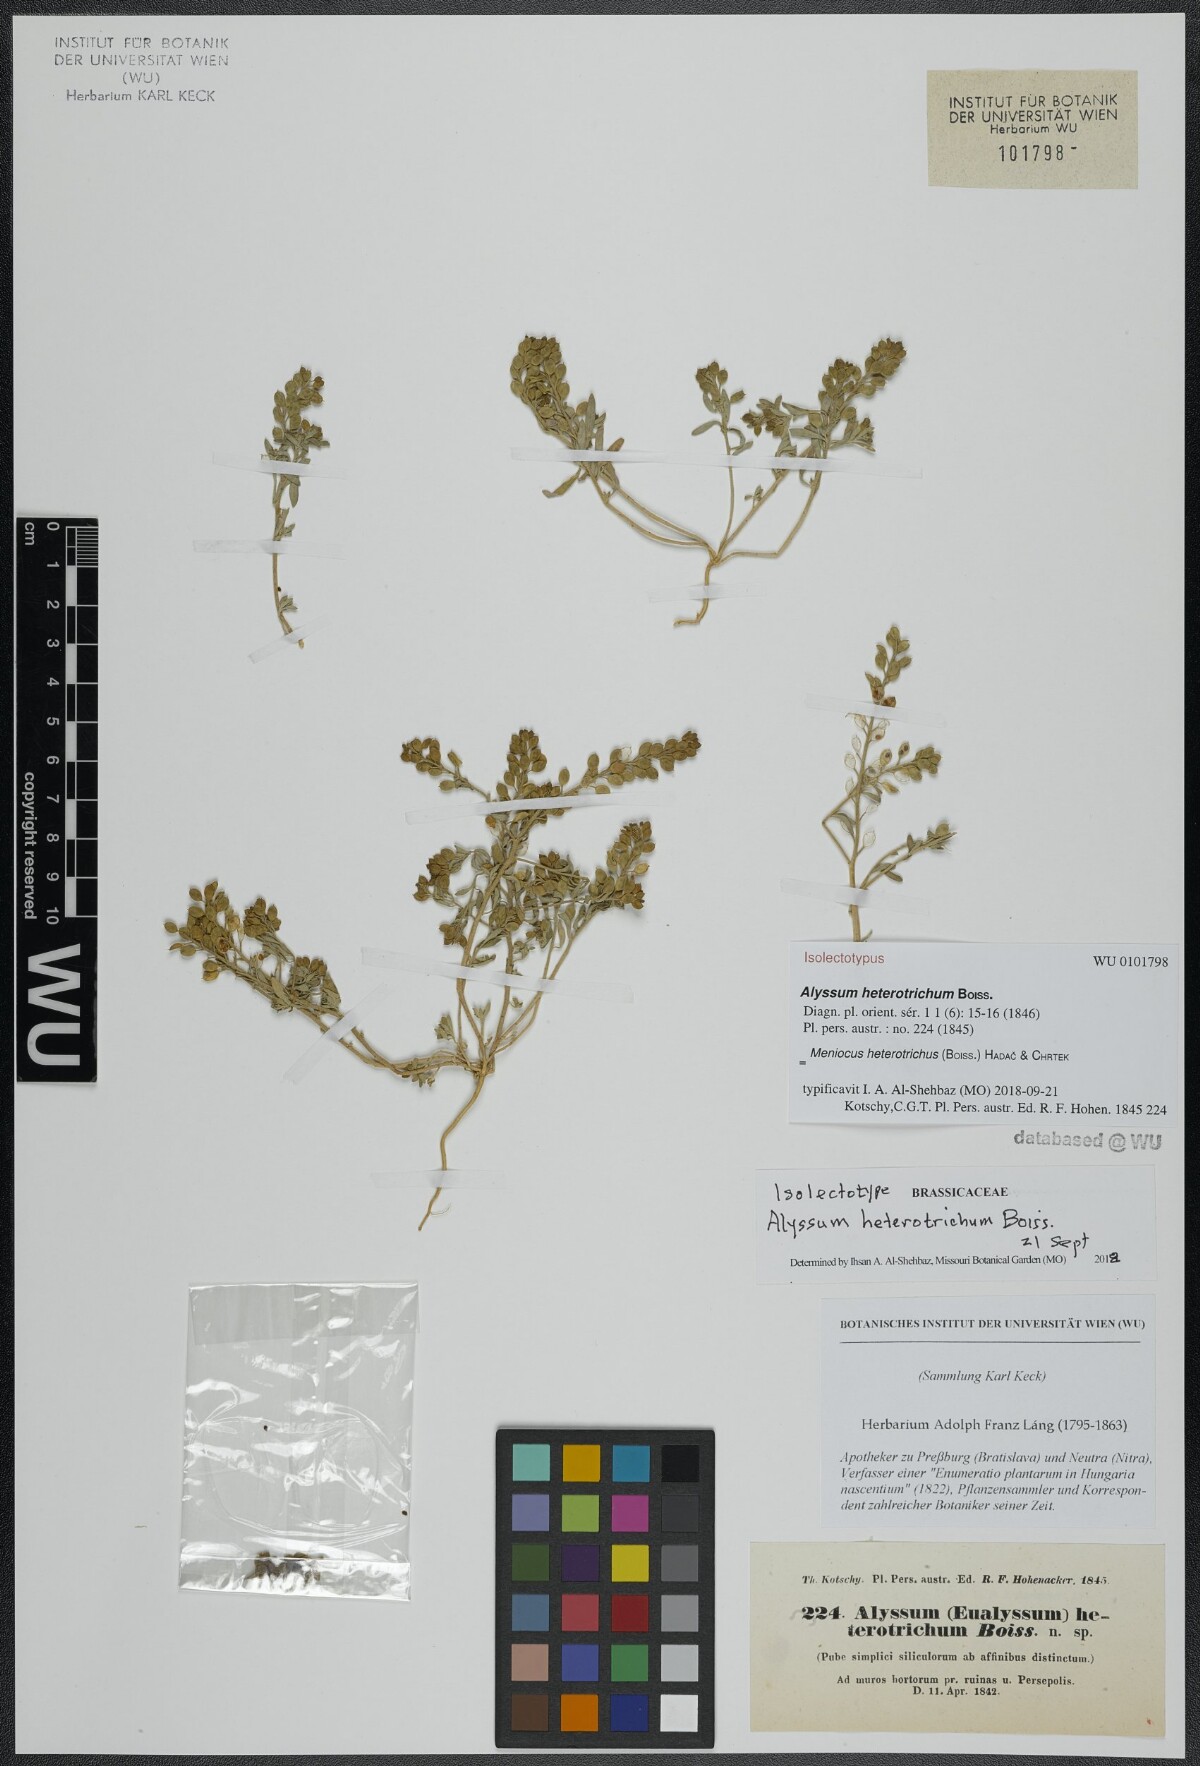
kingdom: Plantae
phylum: Tracheophyta
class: Magnoliopsida
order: Brassicales
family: Brassicaceae
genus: Meniocus
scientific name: Meniocus heterotrichus
